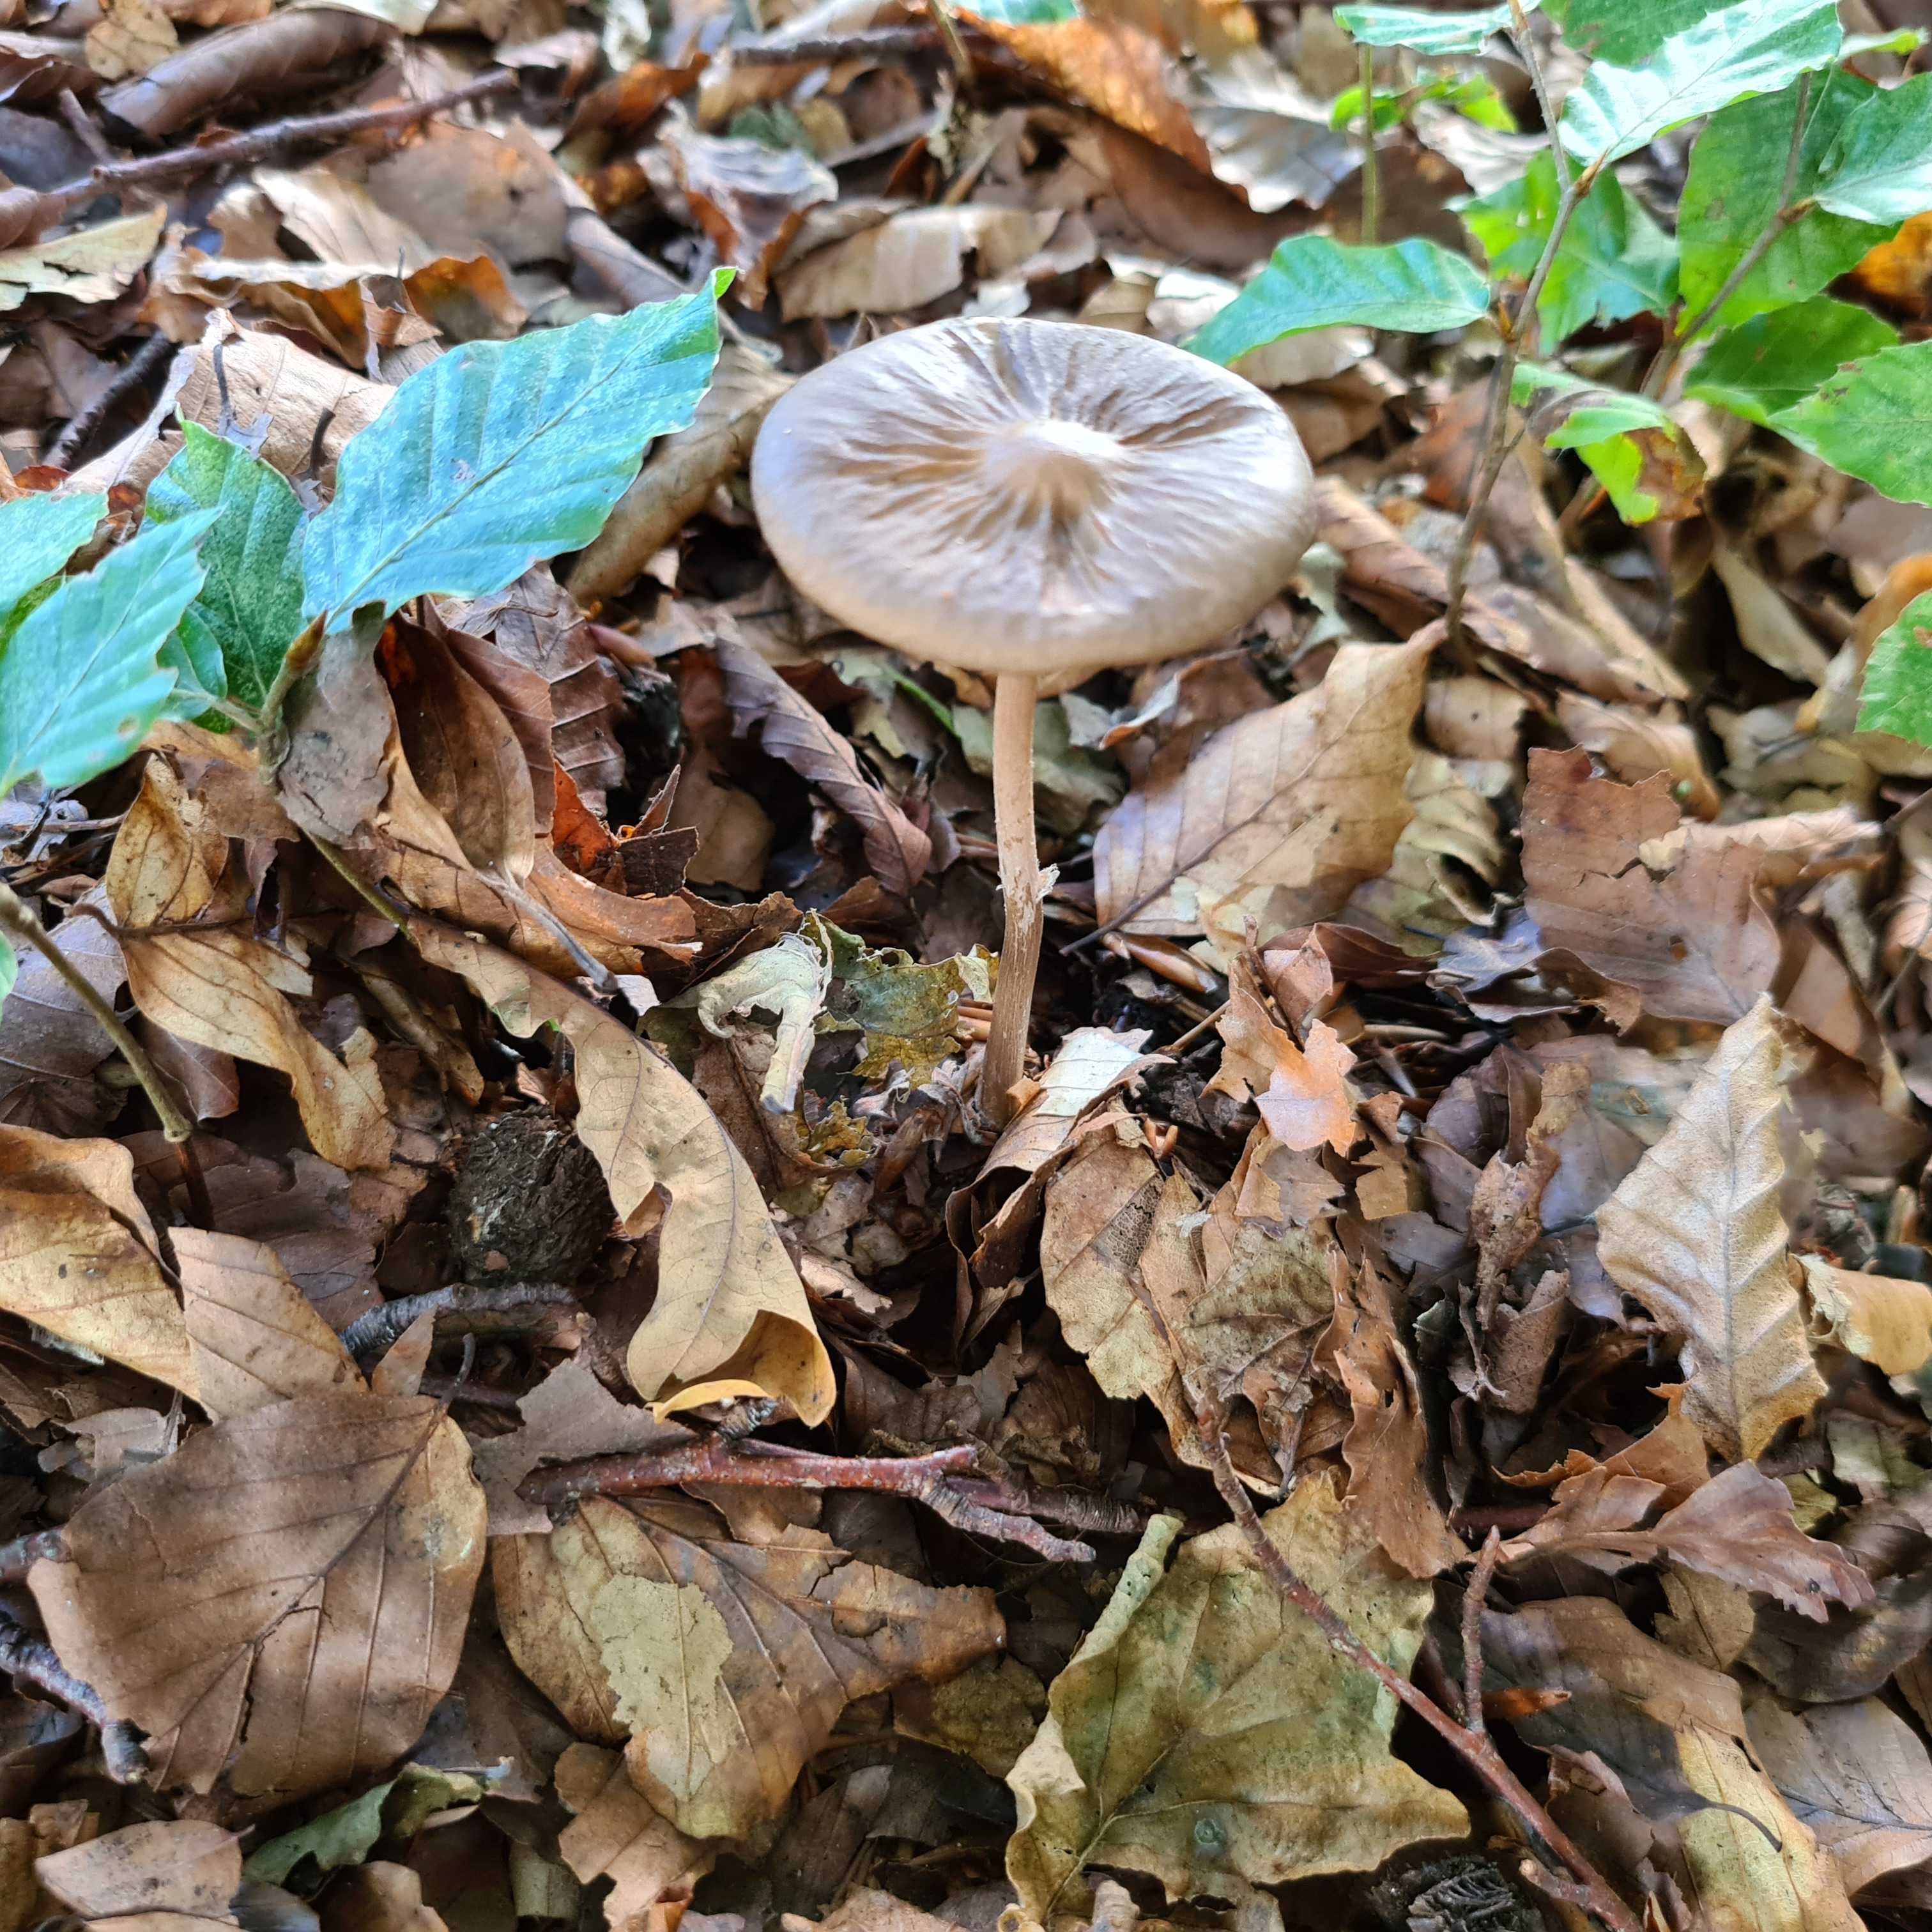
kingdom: Fungi
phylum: Basidiomycota
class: Agaricomycetes
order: Agaricales
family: Physalacriaceae
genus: Hymenopellis
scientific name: Hymenopellis radicata
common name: almindelig pælerodshat
